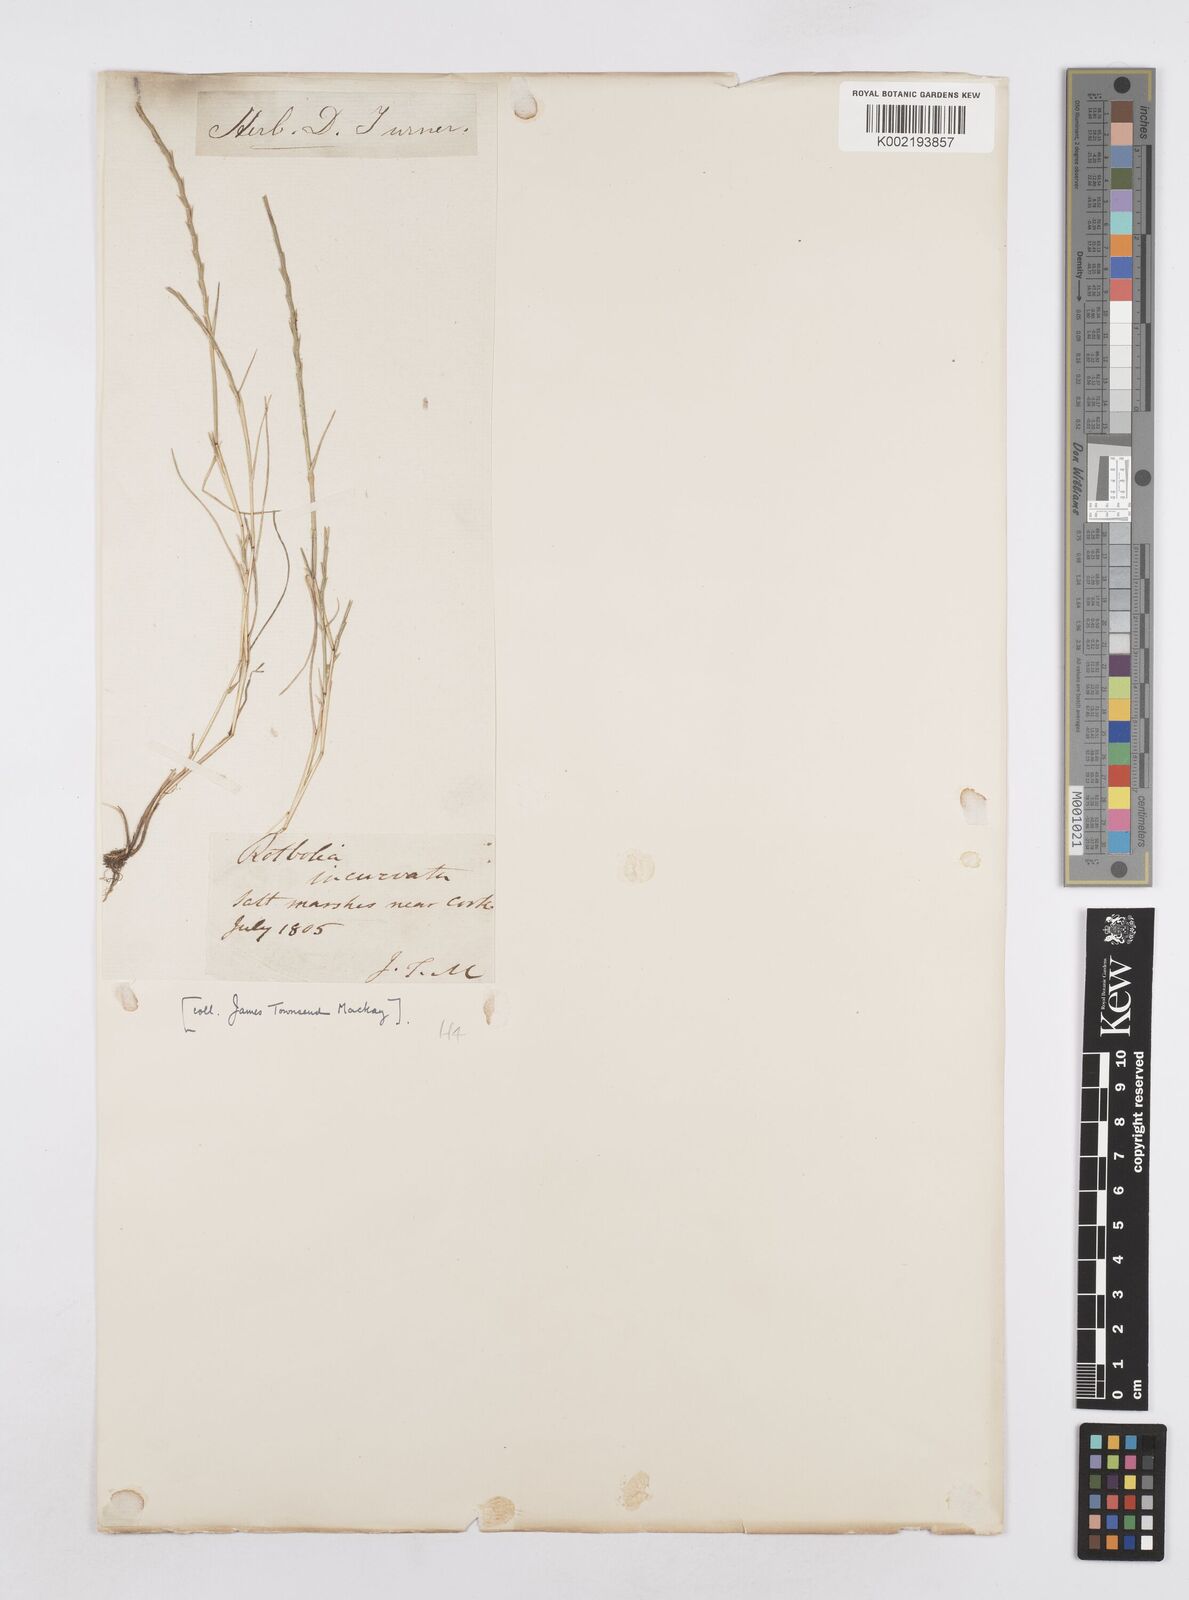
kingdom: Plantae
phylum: Tracheophyta
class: Liliopsida
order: Poales
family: Poaceae
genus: Parapholis
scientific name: Parapholis strigosa
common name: Hard-grass
